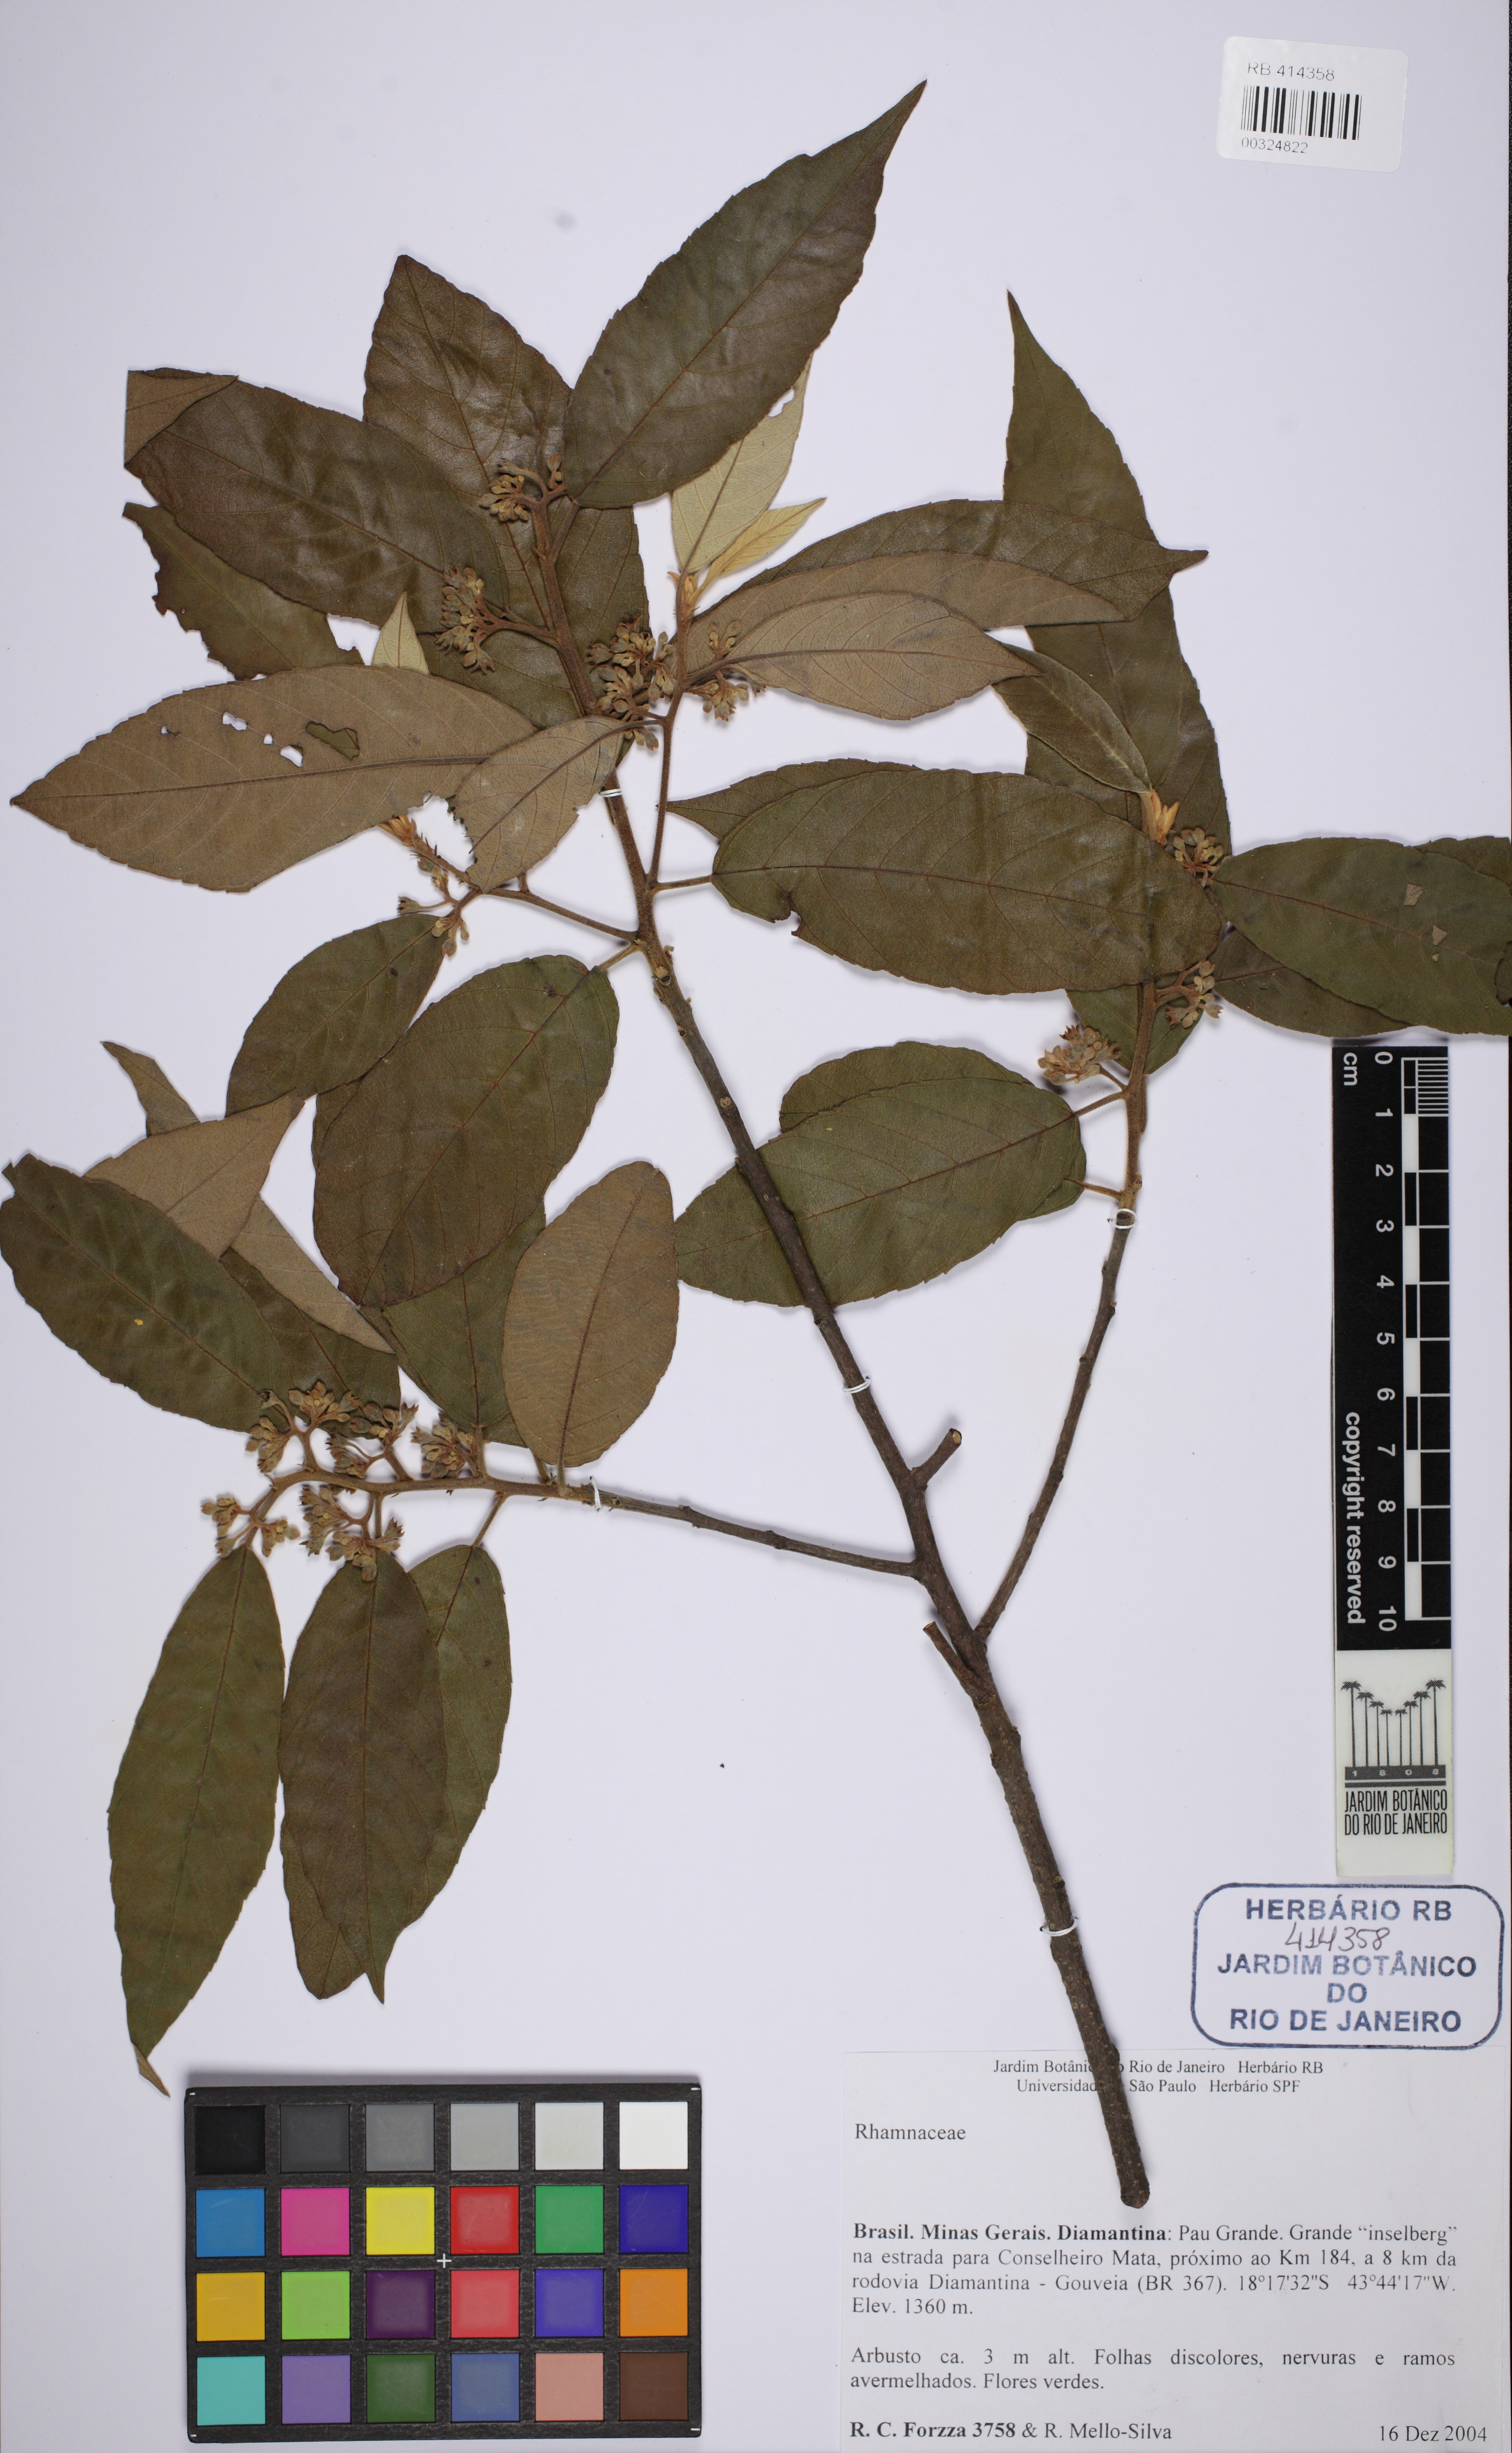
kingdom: Plantae
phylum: Tracheophyta
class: Magnoliopsida
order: Rosales
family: Rhamnaceae
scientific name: Rhamnaceae
